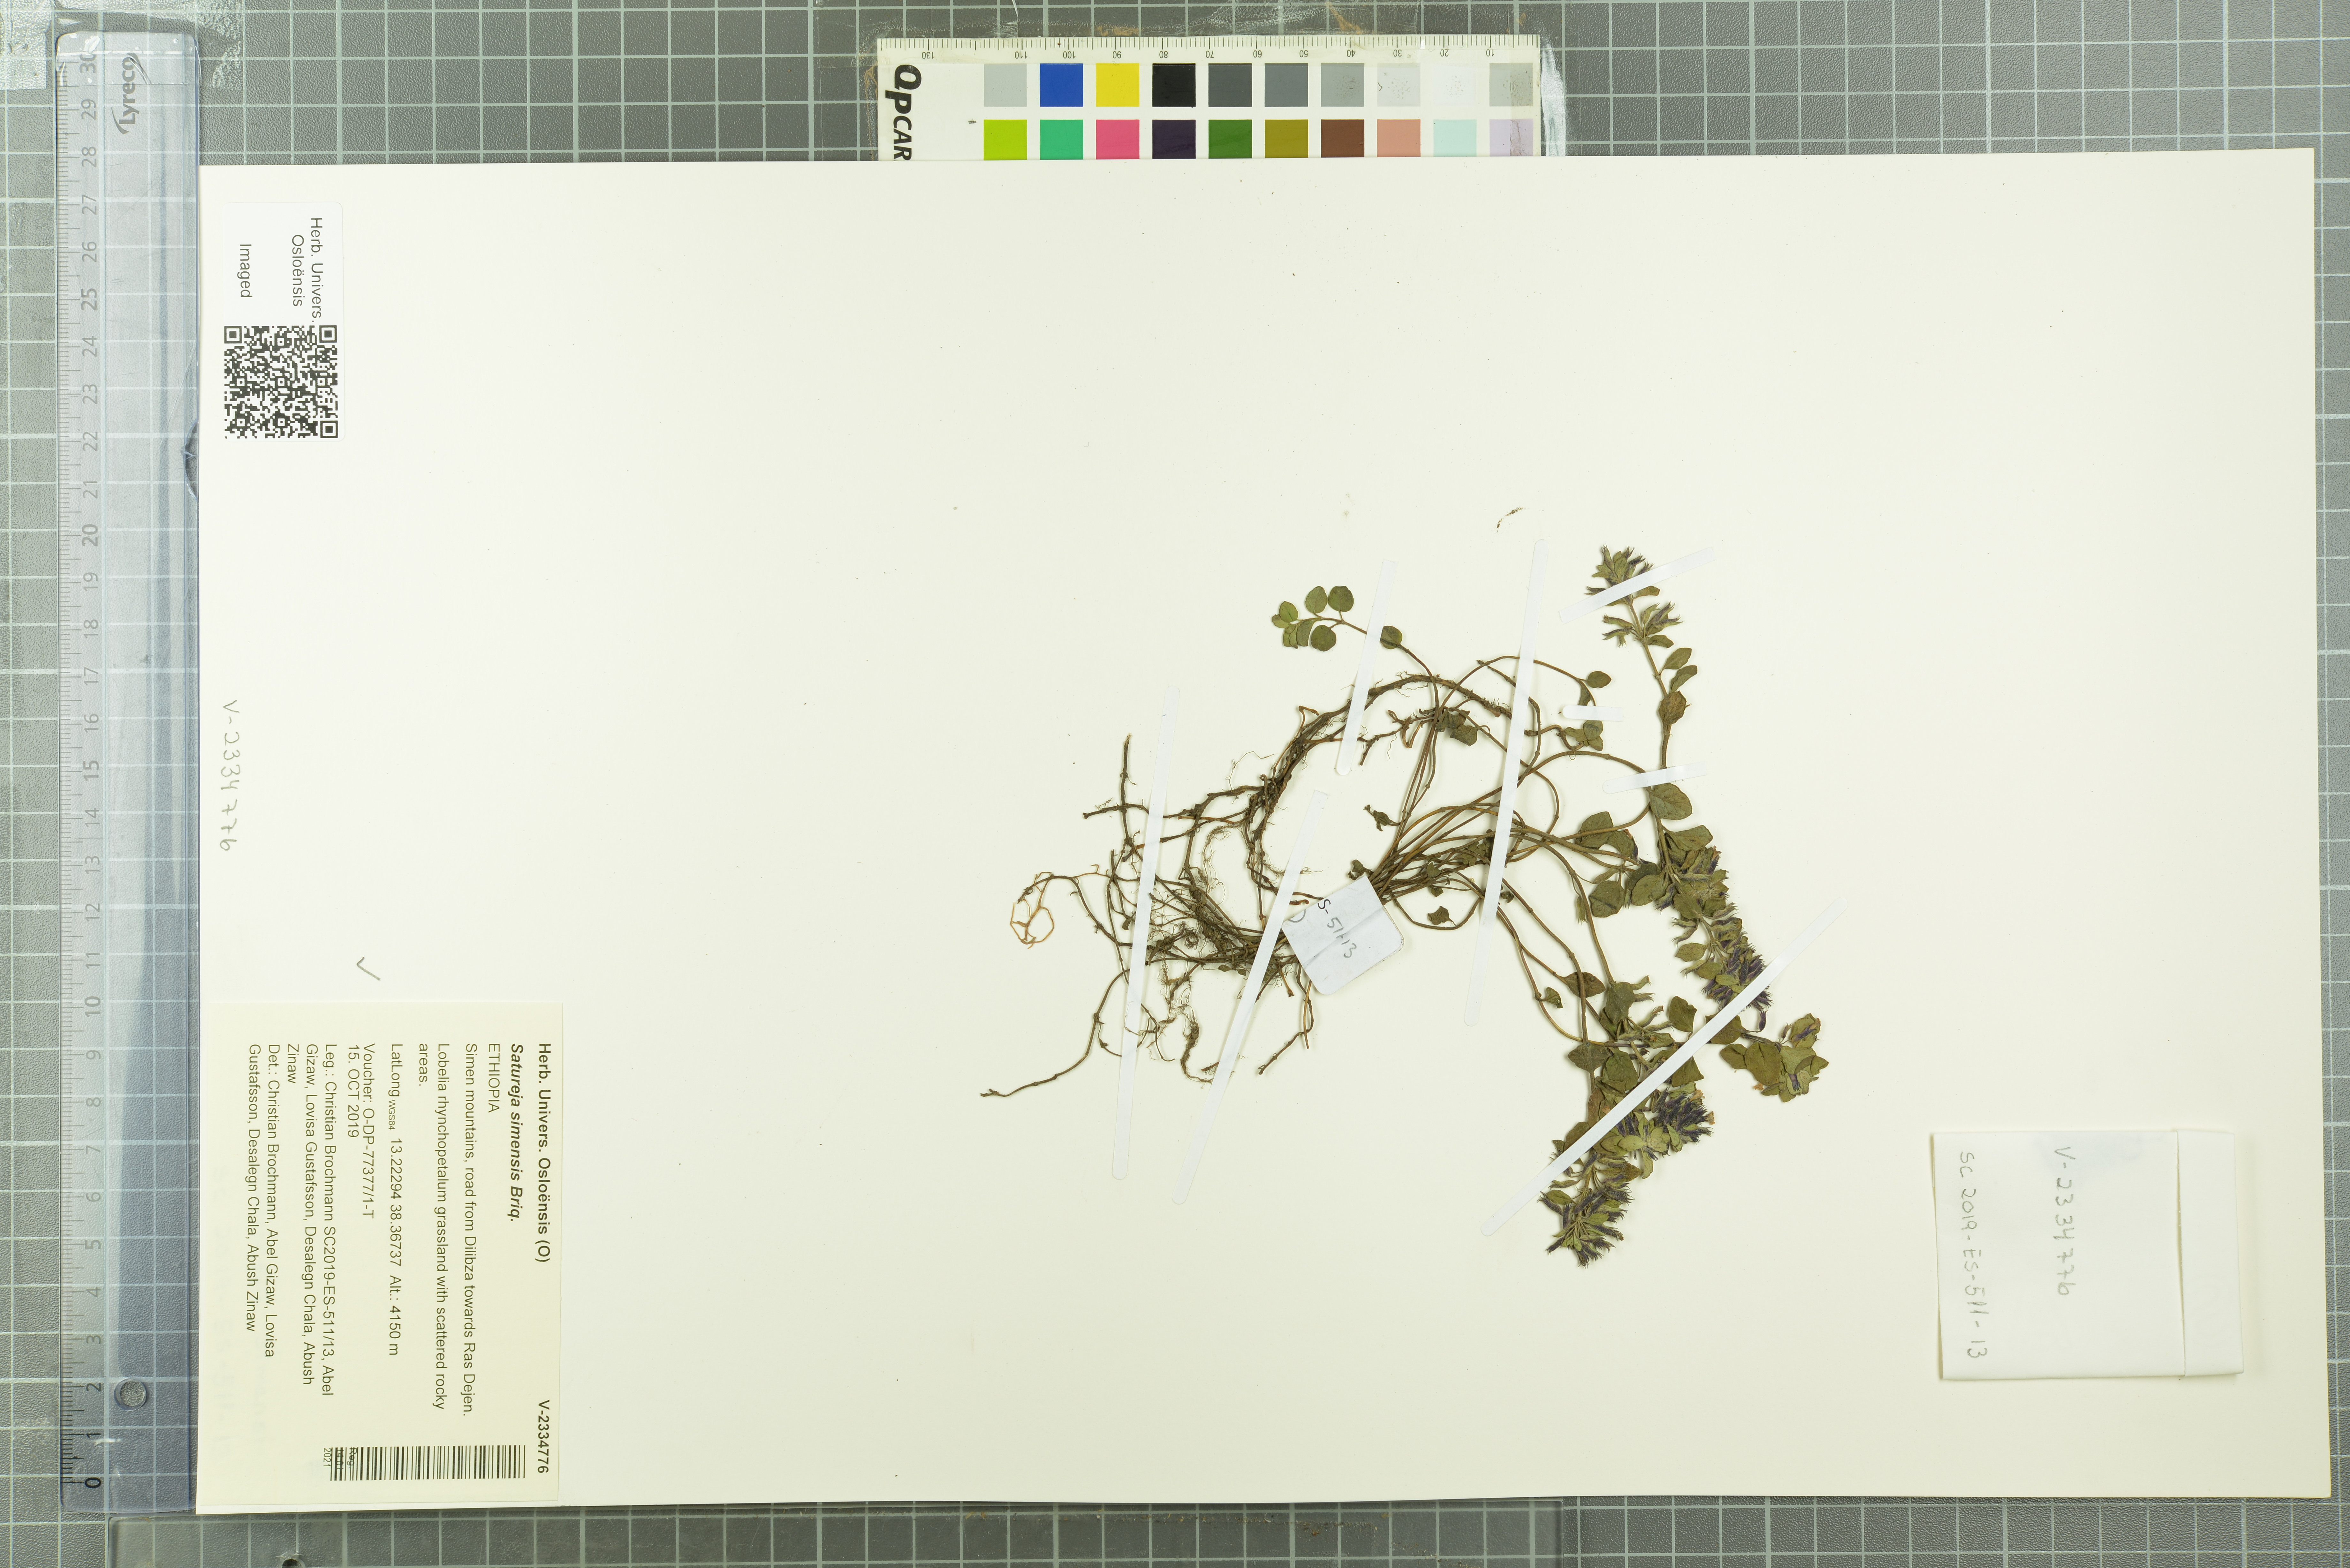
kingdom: Plantae
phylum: Tracheophyta
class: Magnoliopsida
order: Lamiales
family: Lamiaceae
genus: Clinopodium
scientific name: Clinopodium simense
